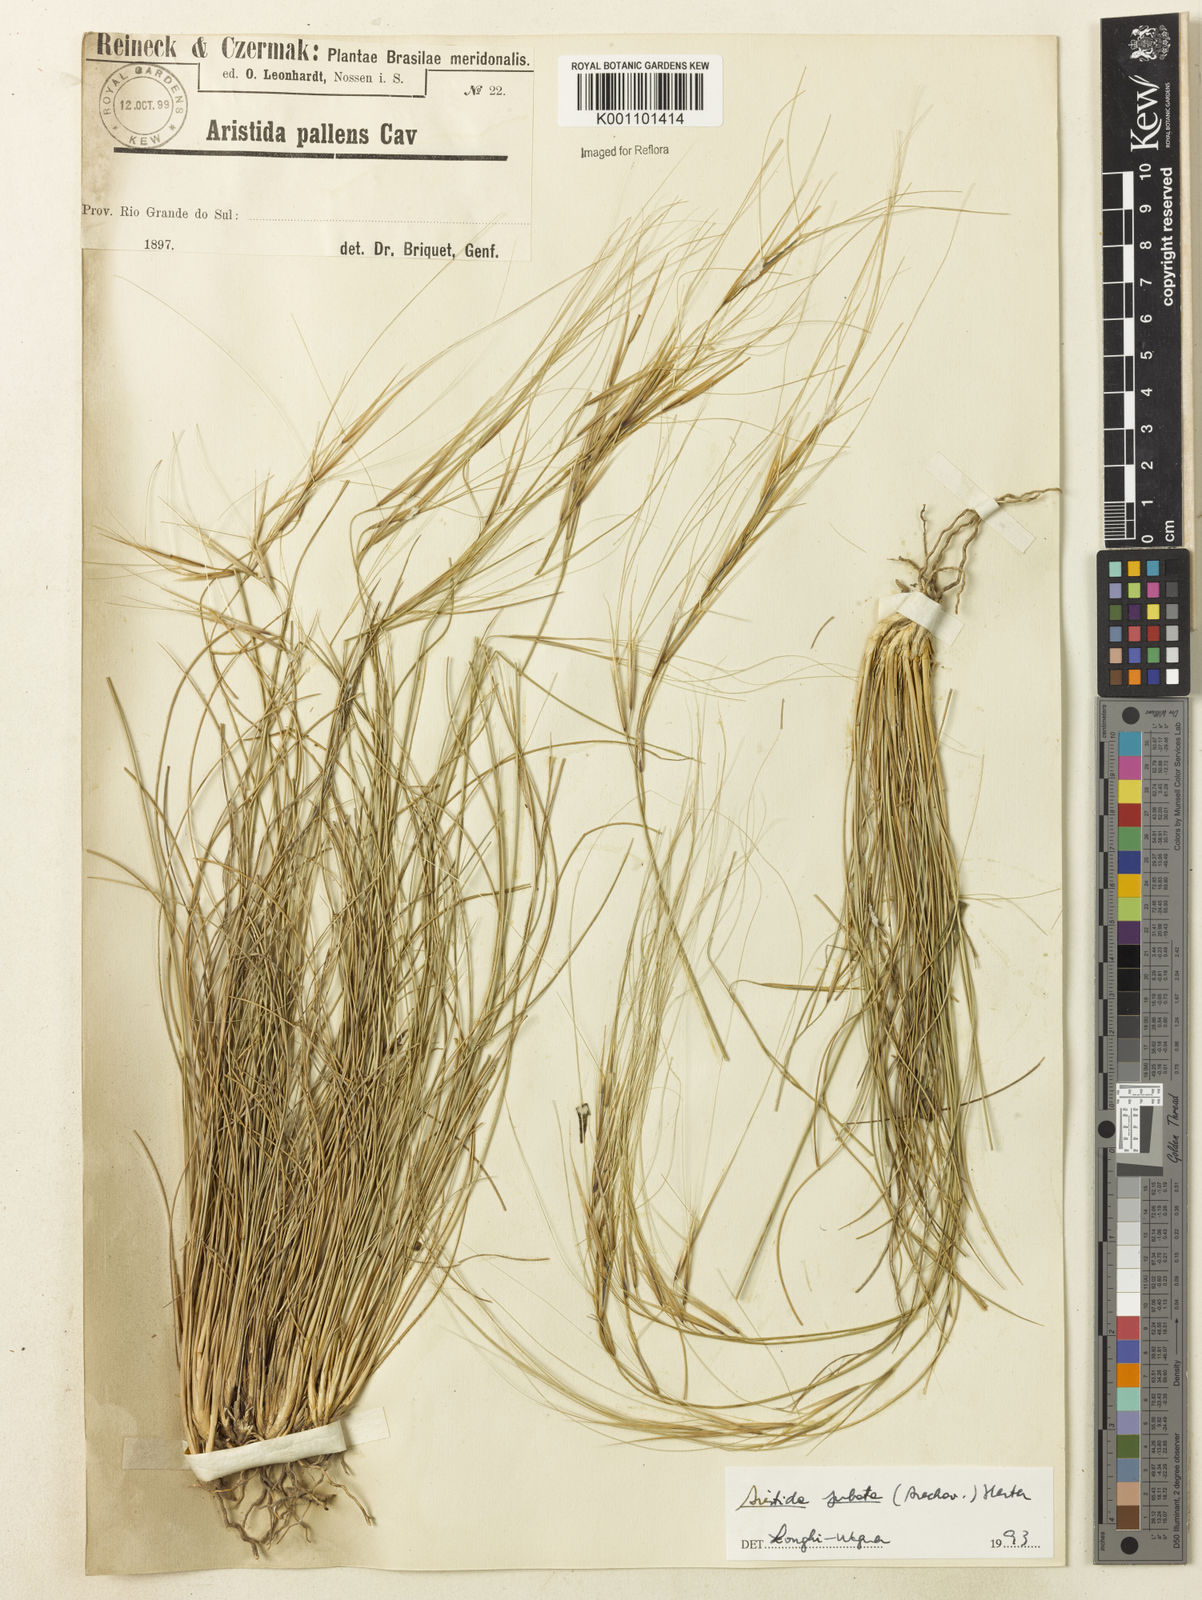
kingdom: Plantae
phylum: Tracheophyta
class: Liliopsida
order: Poales
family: Poaceae
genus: Aristida
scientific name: Aristida jubata
